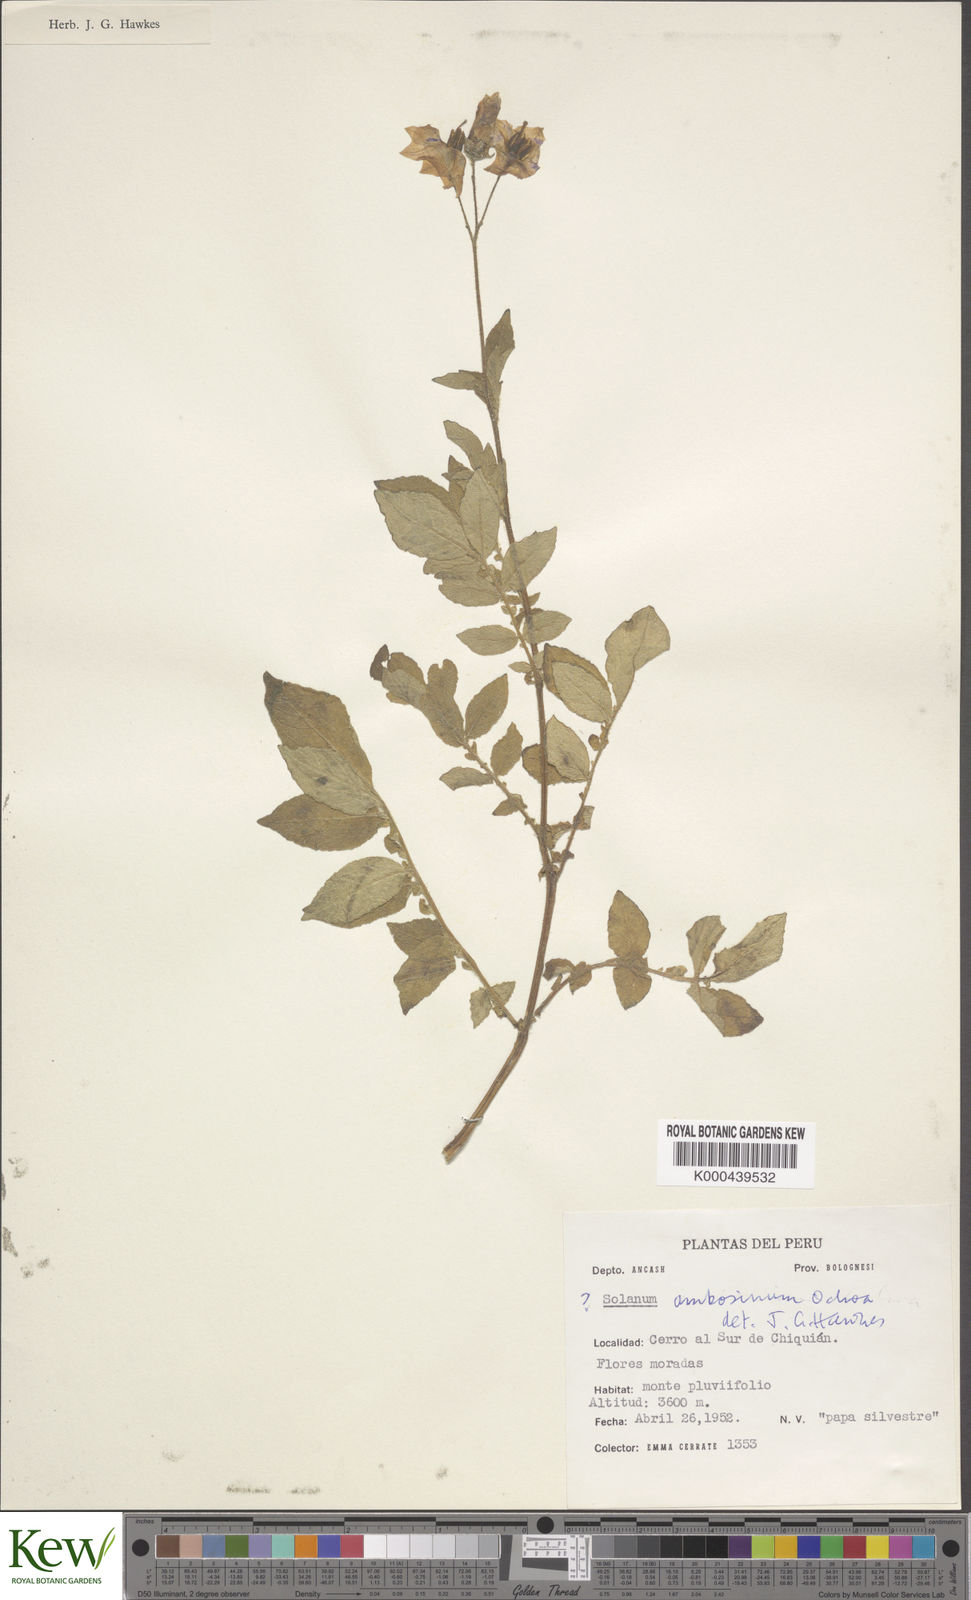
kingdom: Plantae
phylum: Tracheophyta
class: Magnoliopsida
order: Solanales
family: Solanaceae
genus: Solanum
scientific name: Solanum multiinterruptum
